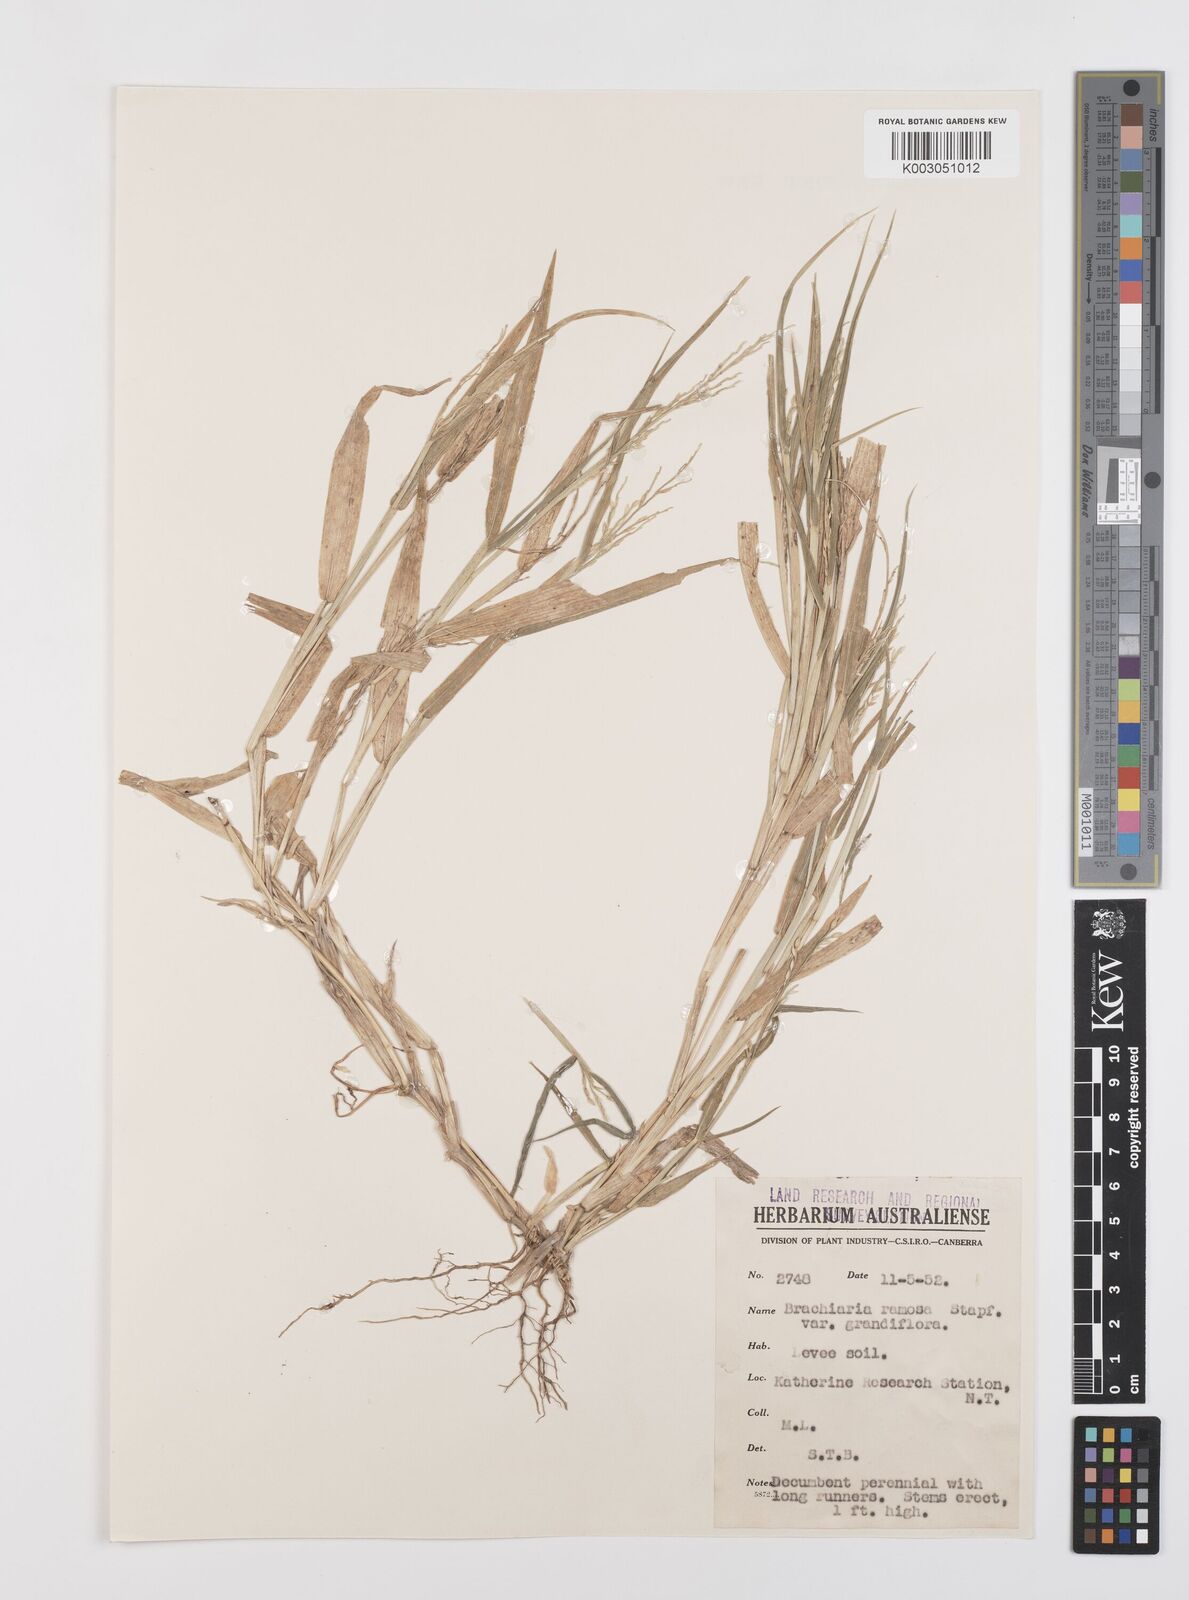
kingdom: Plantae
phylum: Tracheophyta
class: Liliopsida
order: Poales
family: Poaceae
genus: Urochloa
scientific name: Urochloa pubigera
